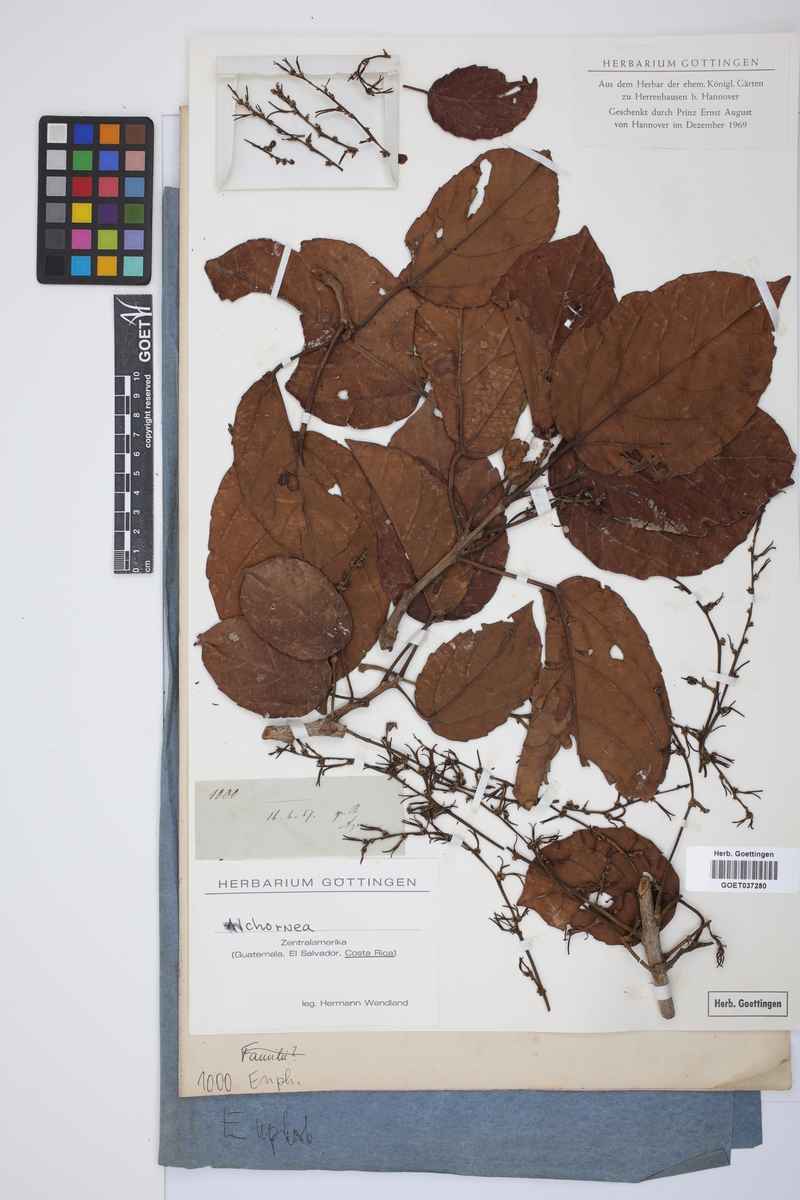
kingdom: Plantae
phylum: Tracheophyta
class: Magnoliopsida
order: Malpighiales
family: Euphorbiaceae
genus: Alchornea
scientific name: Alchornea
